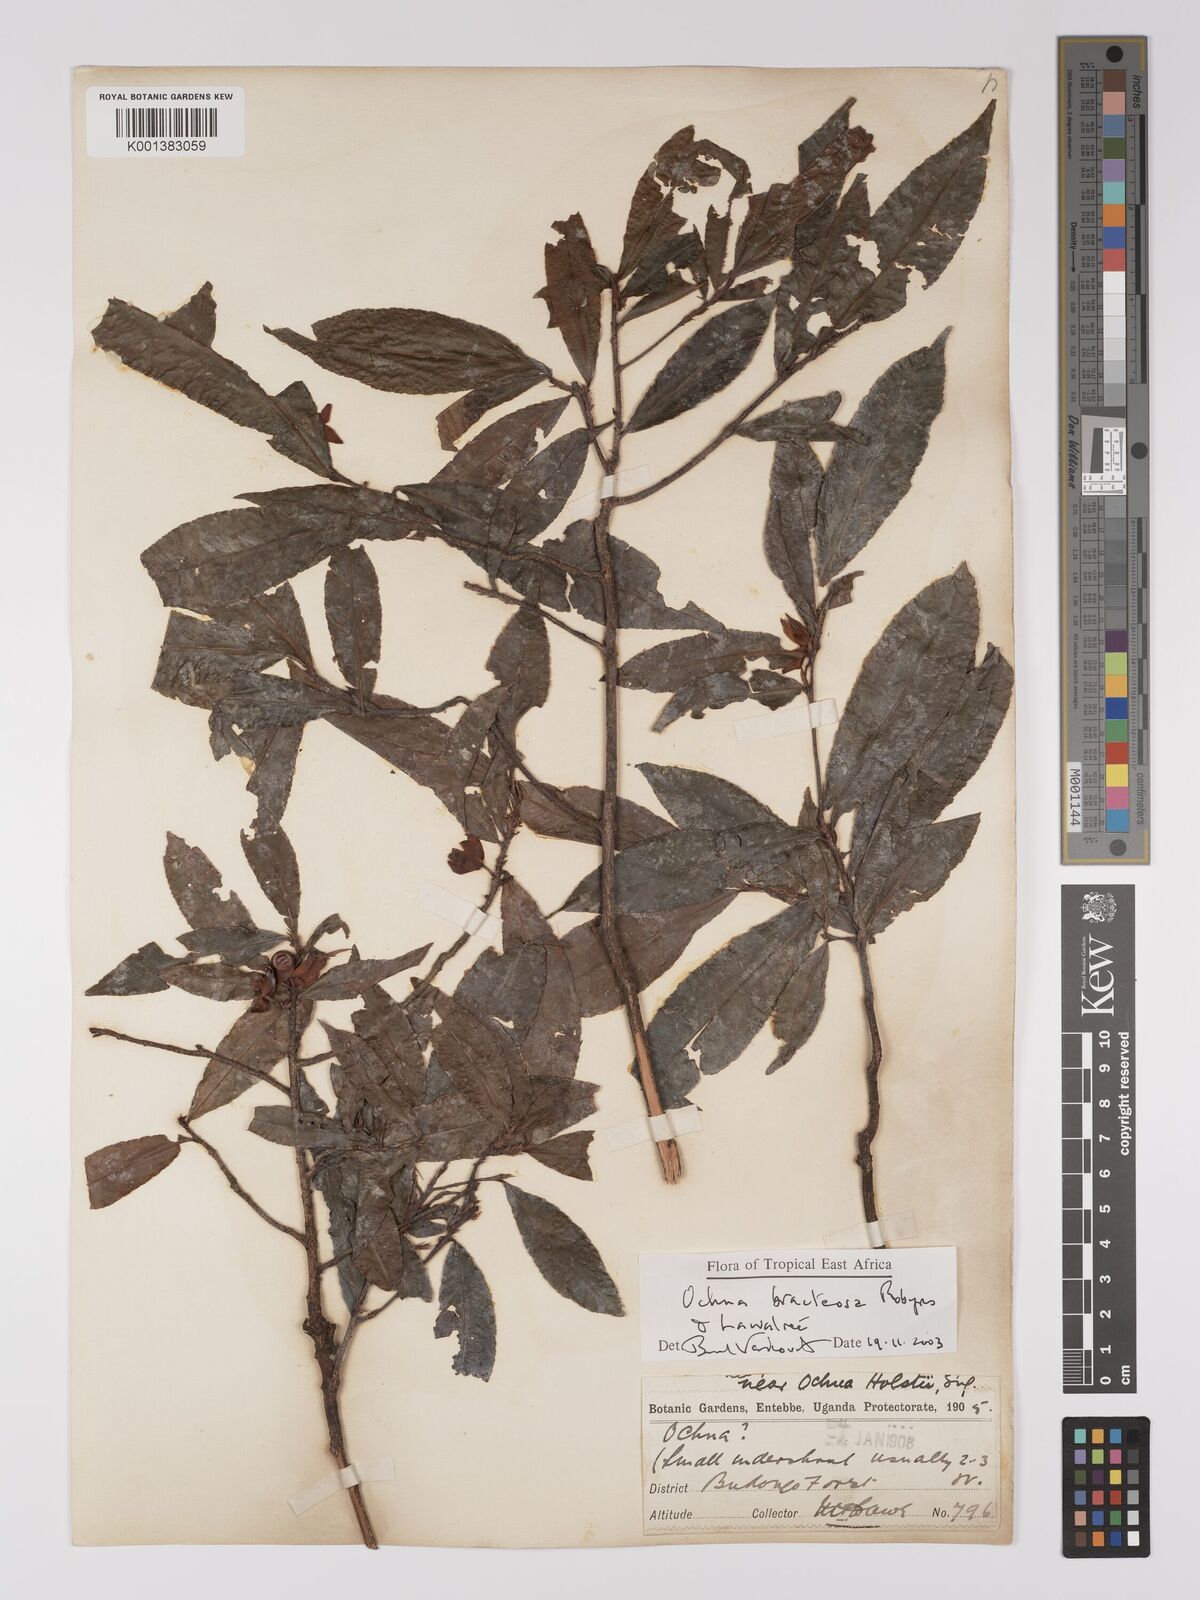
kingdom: Plantae
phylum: Tracheophyta
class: Magnoliopsida
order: Malpighiales
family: Ochnaceae
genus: Ochna
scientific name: Ochna bracteosa
